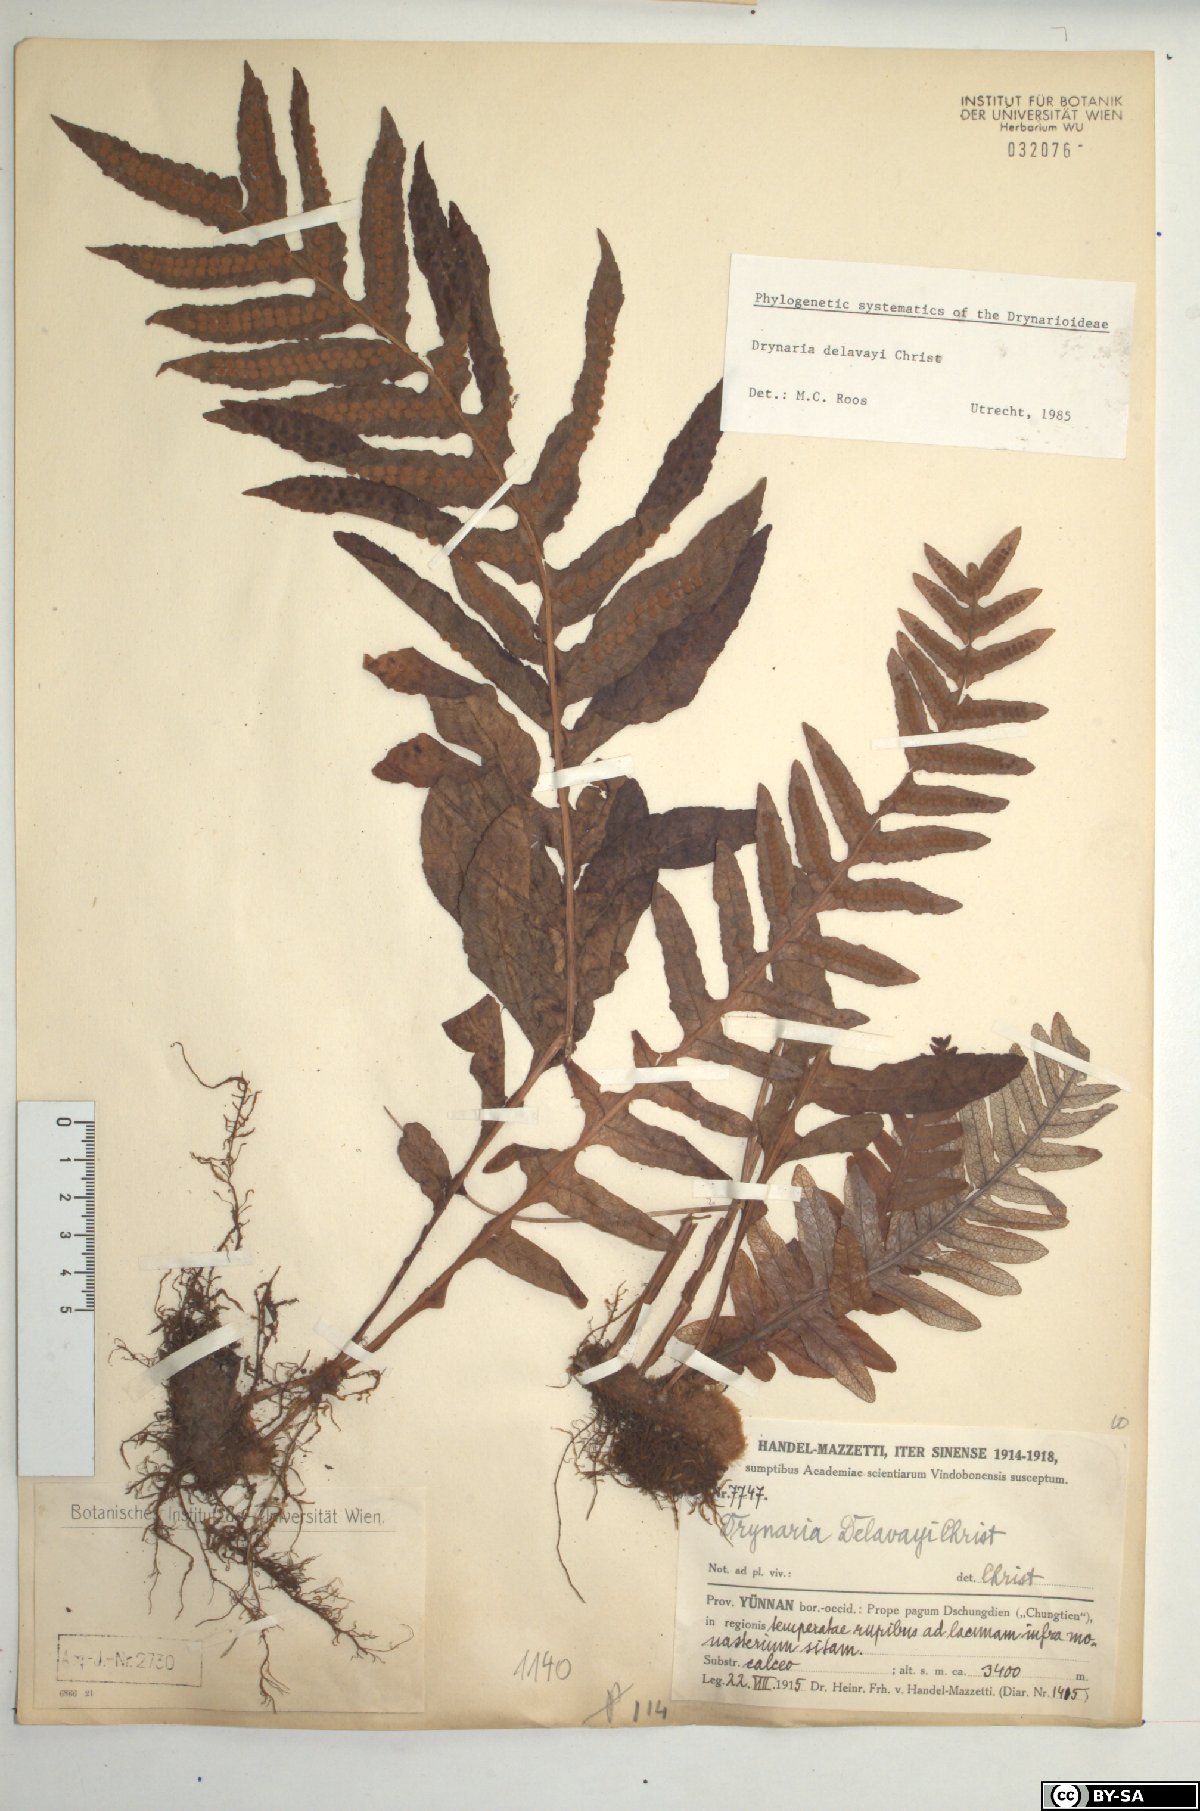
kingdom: Plantae
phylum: Tracheophyta
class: Polypodiopsida
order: Polypodiales
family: Polypodiaceae
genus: Drynaria
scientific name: Drynaria delavayi
